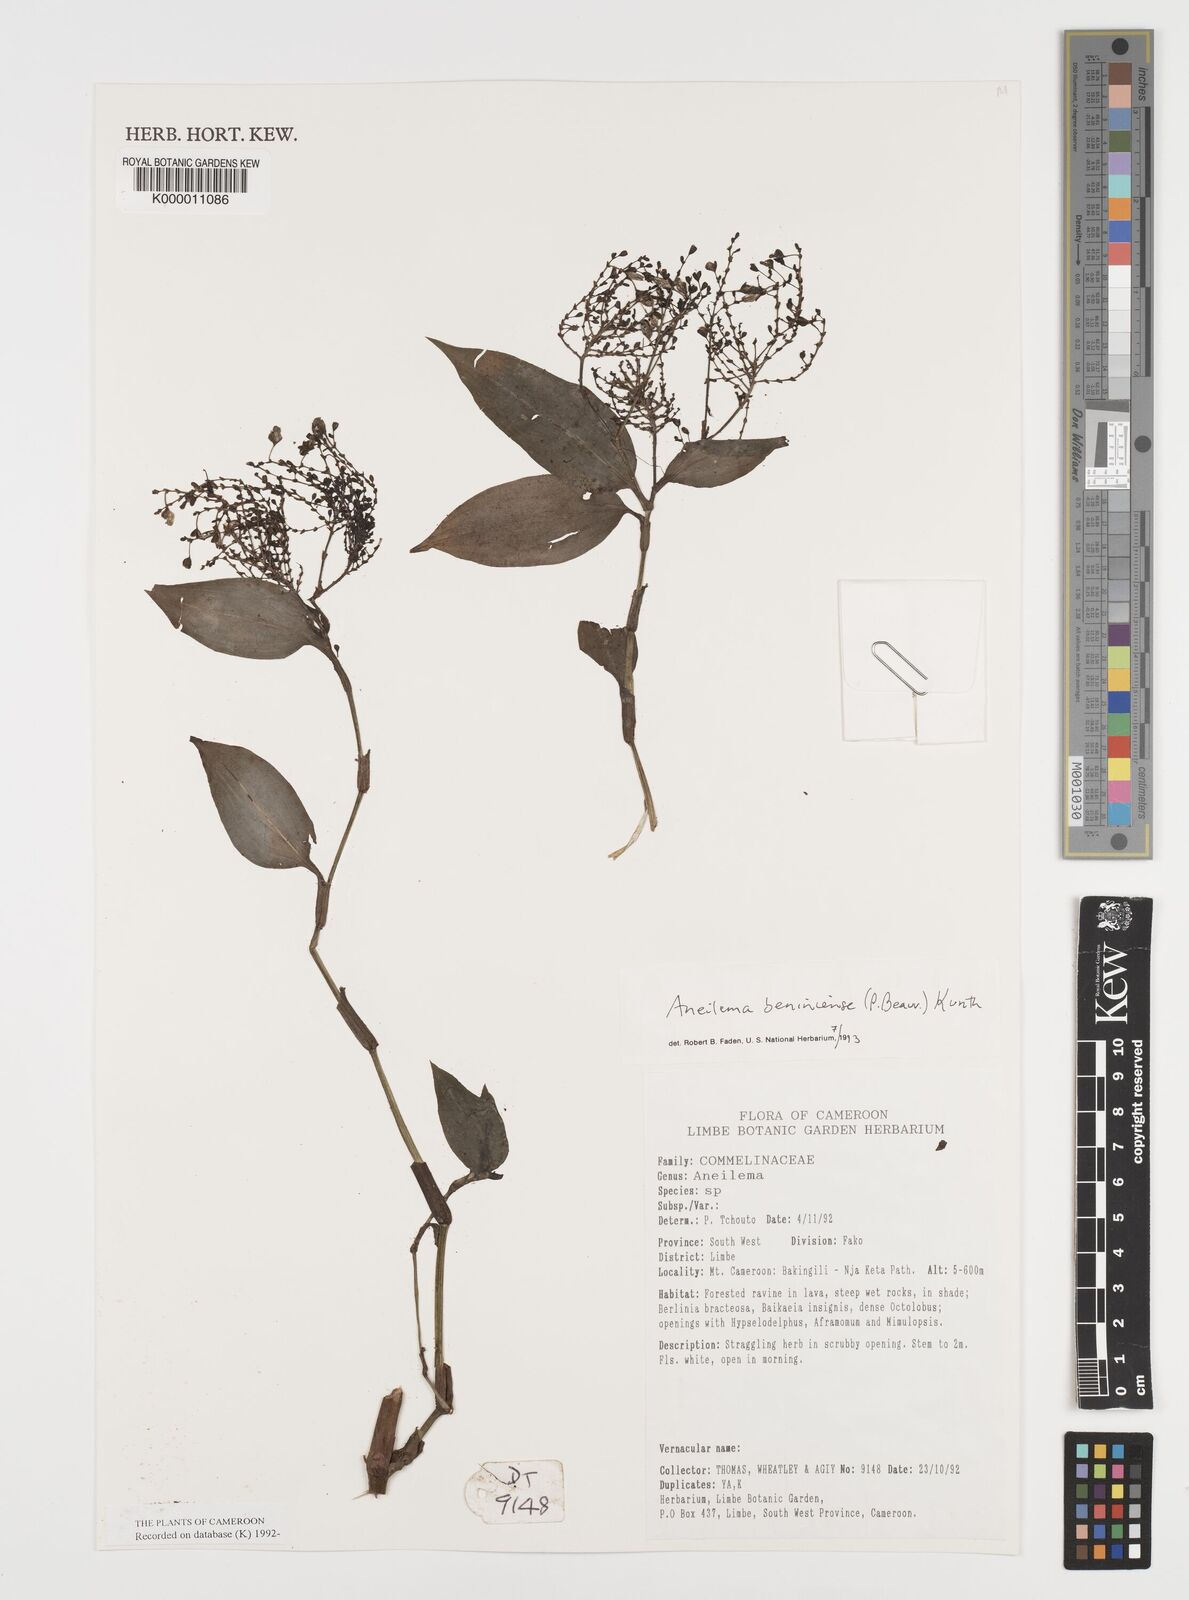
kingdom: Plantae
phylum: Tracheophyta
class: Liliopsida
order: Commelinales
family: Commelinaceae
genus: Aneilema
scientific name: Aneilema beniniense
